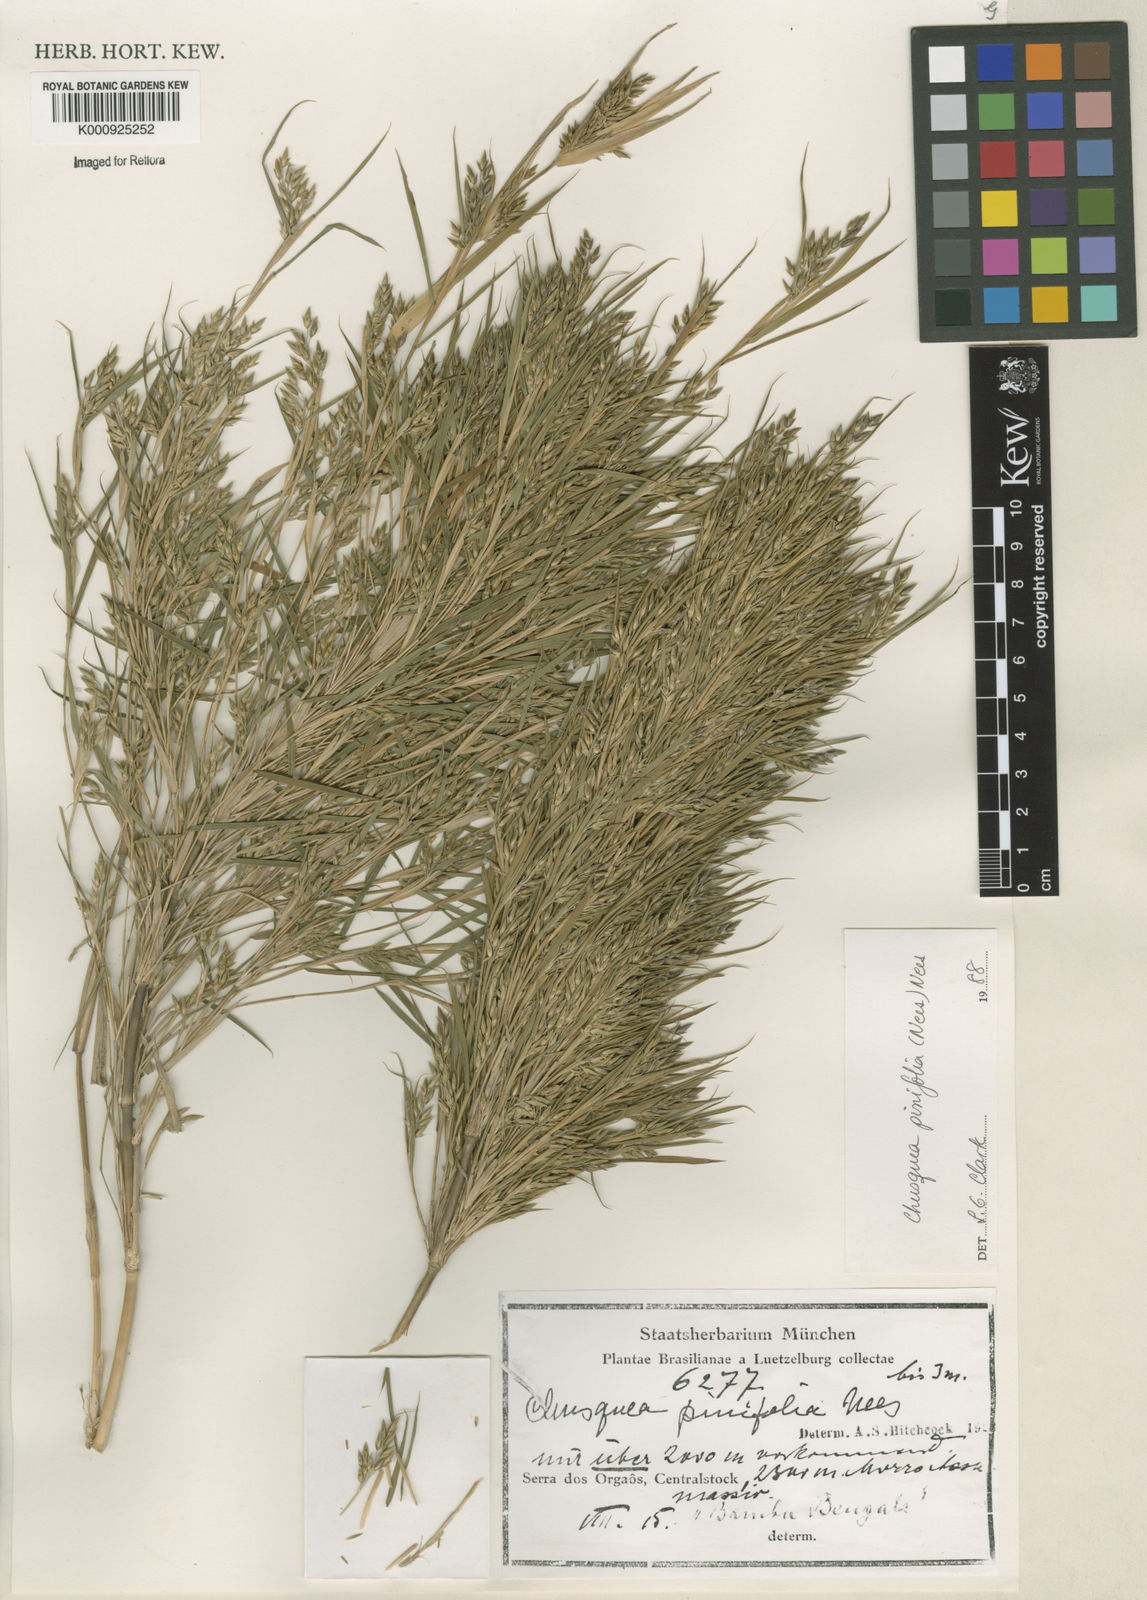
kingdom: Plantae
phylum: Tracheophyta
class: Liliopsida
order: Poales
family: Poaceae
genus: Chusquea
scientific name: Chusquea pinifolia
